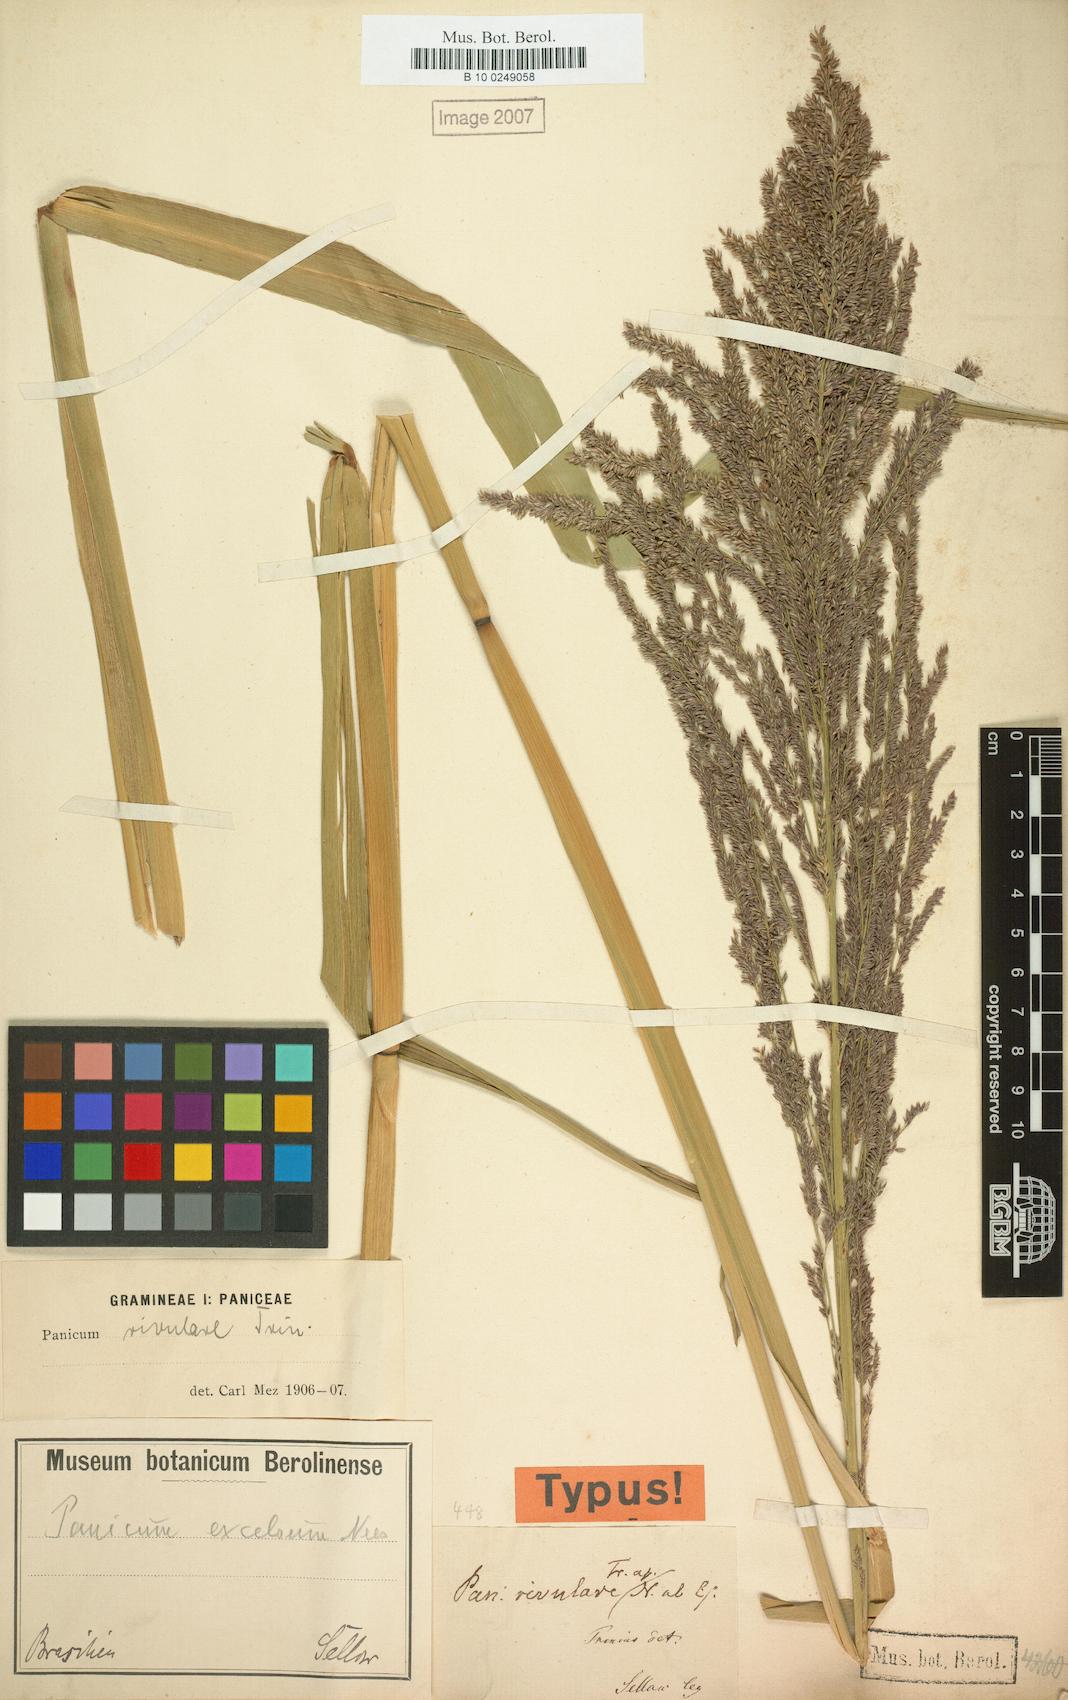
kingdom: Plantae
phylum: Tracheophyta
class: Liliopsida
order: Poales
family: Poaceae
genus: Hymenachne
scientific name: Hymenachne pernambucensis
